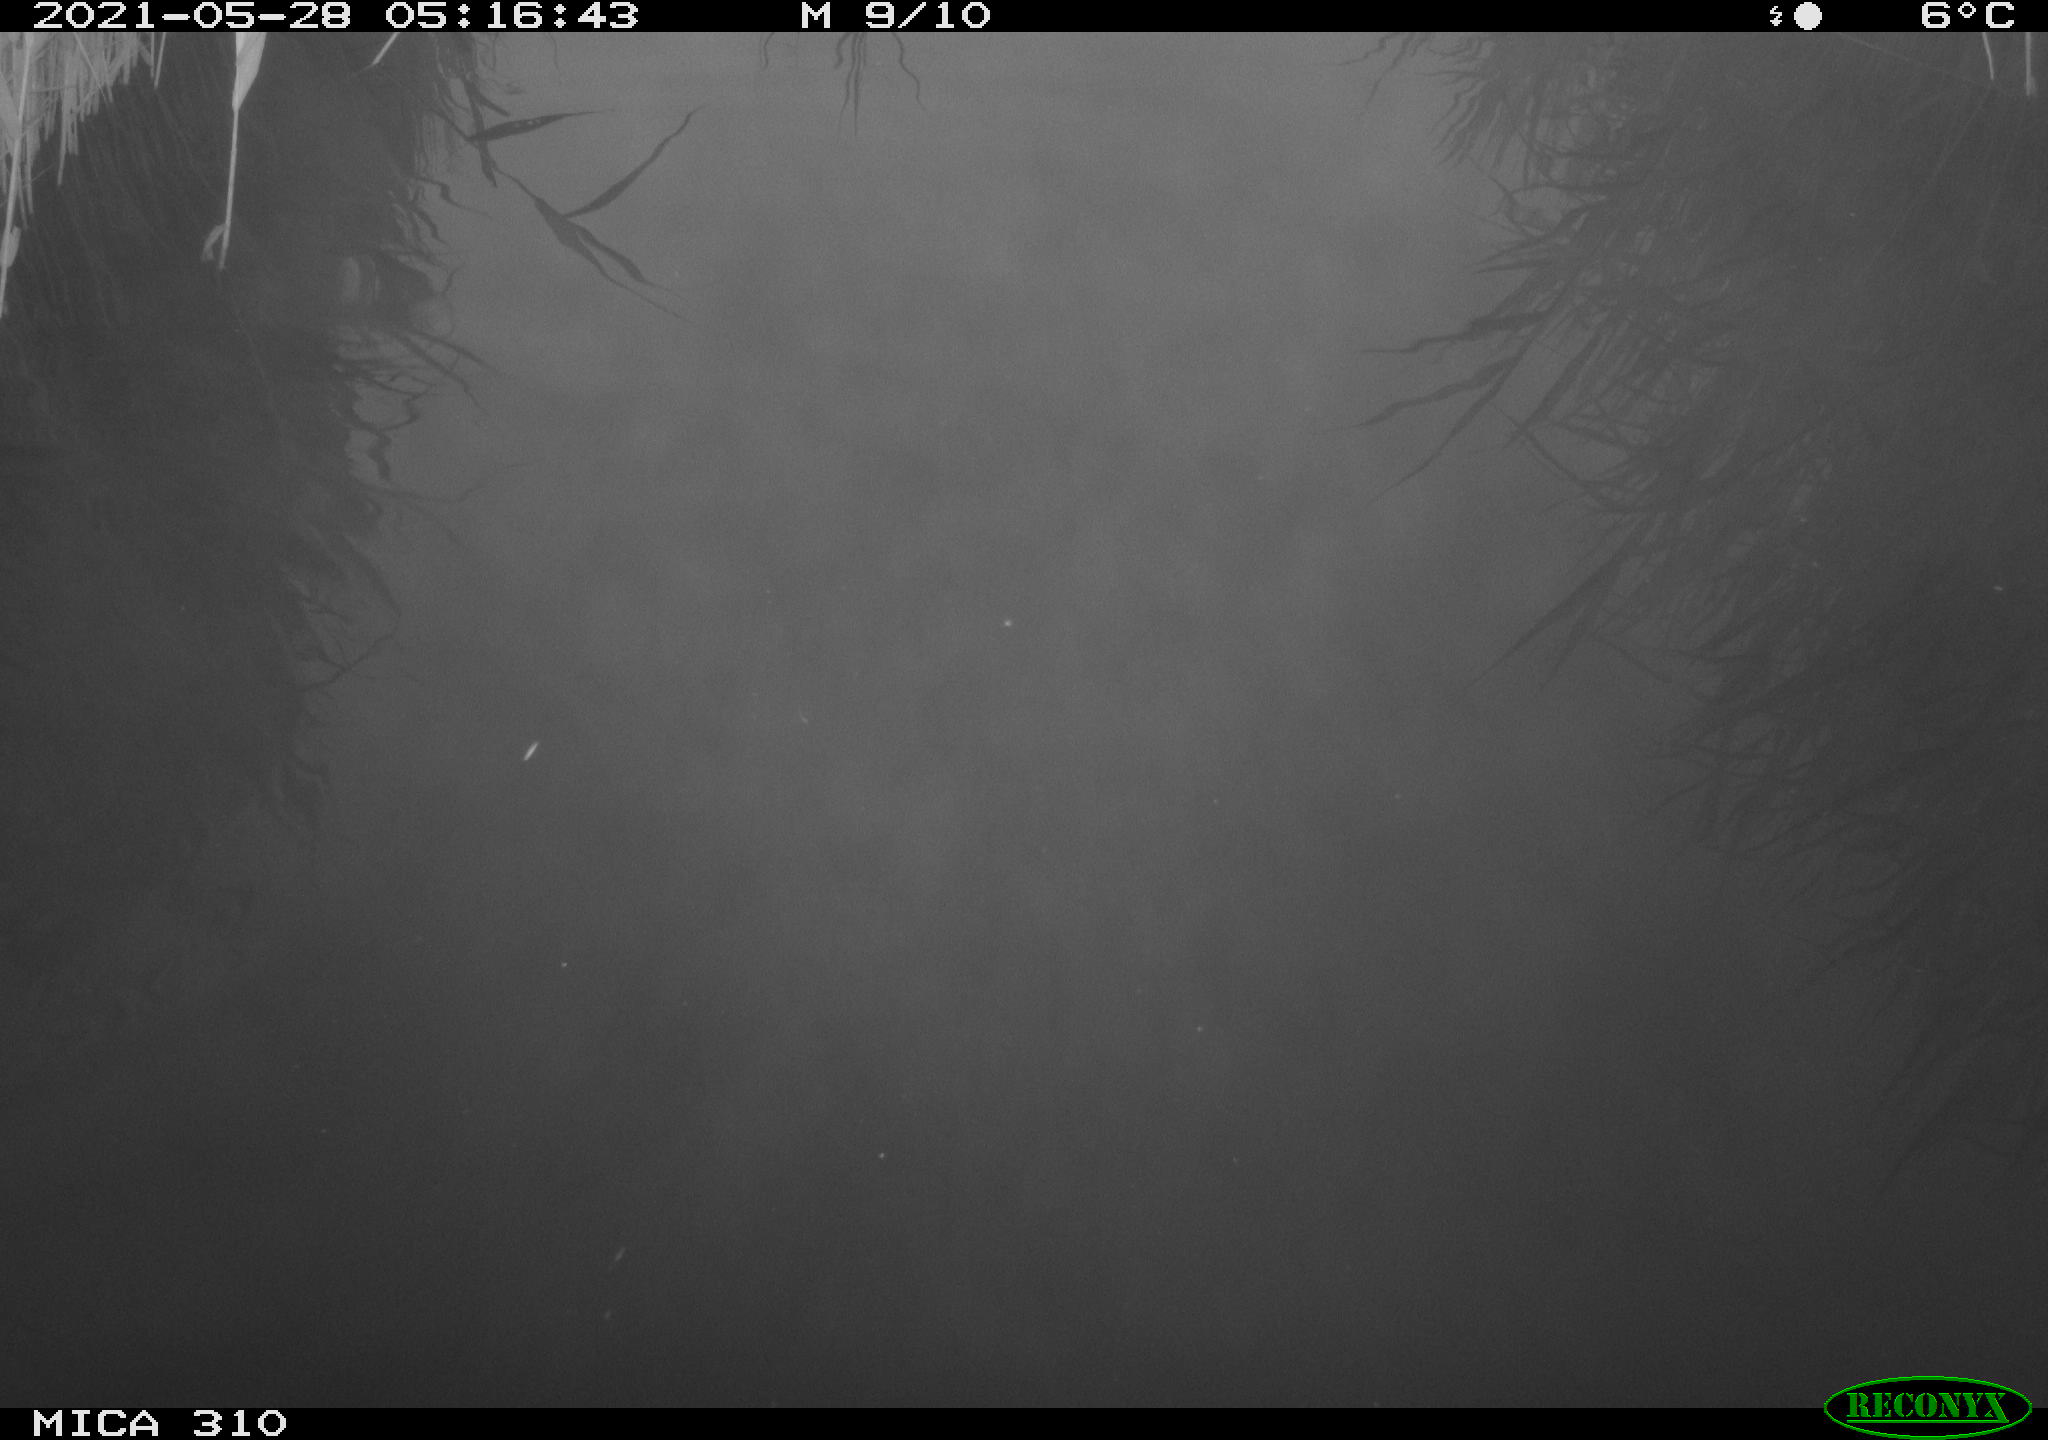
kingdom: Animalia
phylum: Chordata
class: Aves
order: Gruiformes
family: Rallidae
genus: Fulica
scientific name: Fulica atra
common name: Eurasian coot
